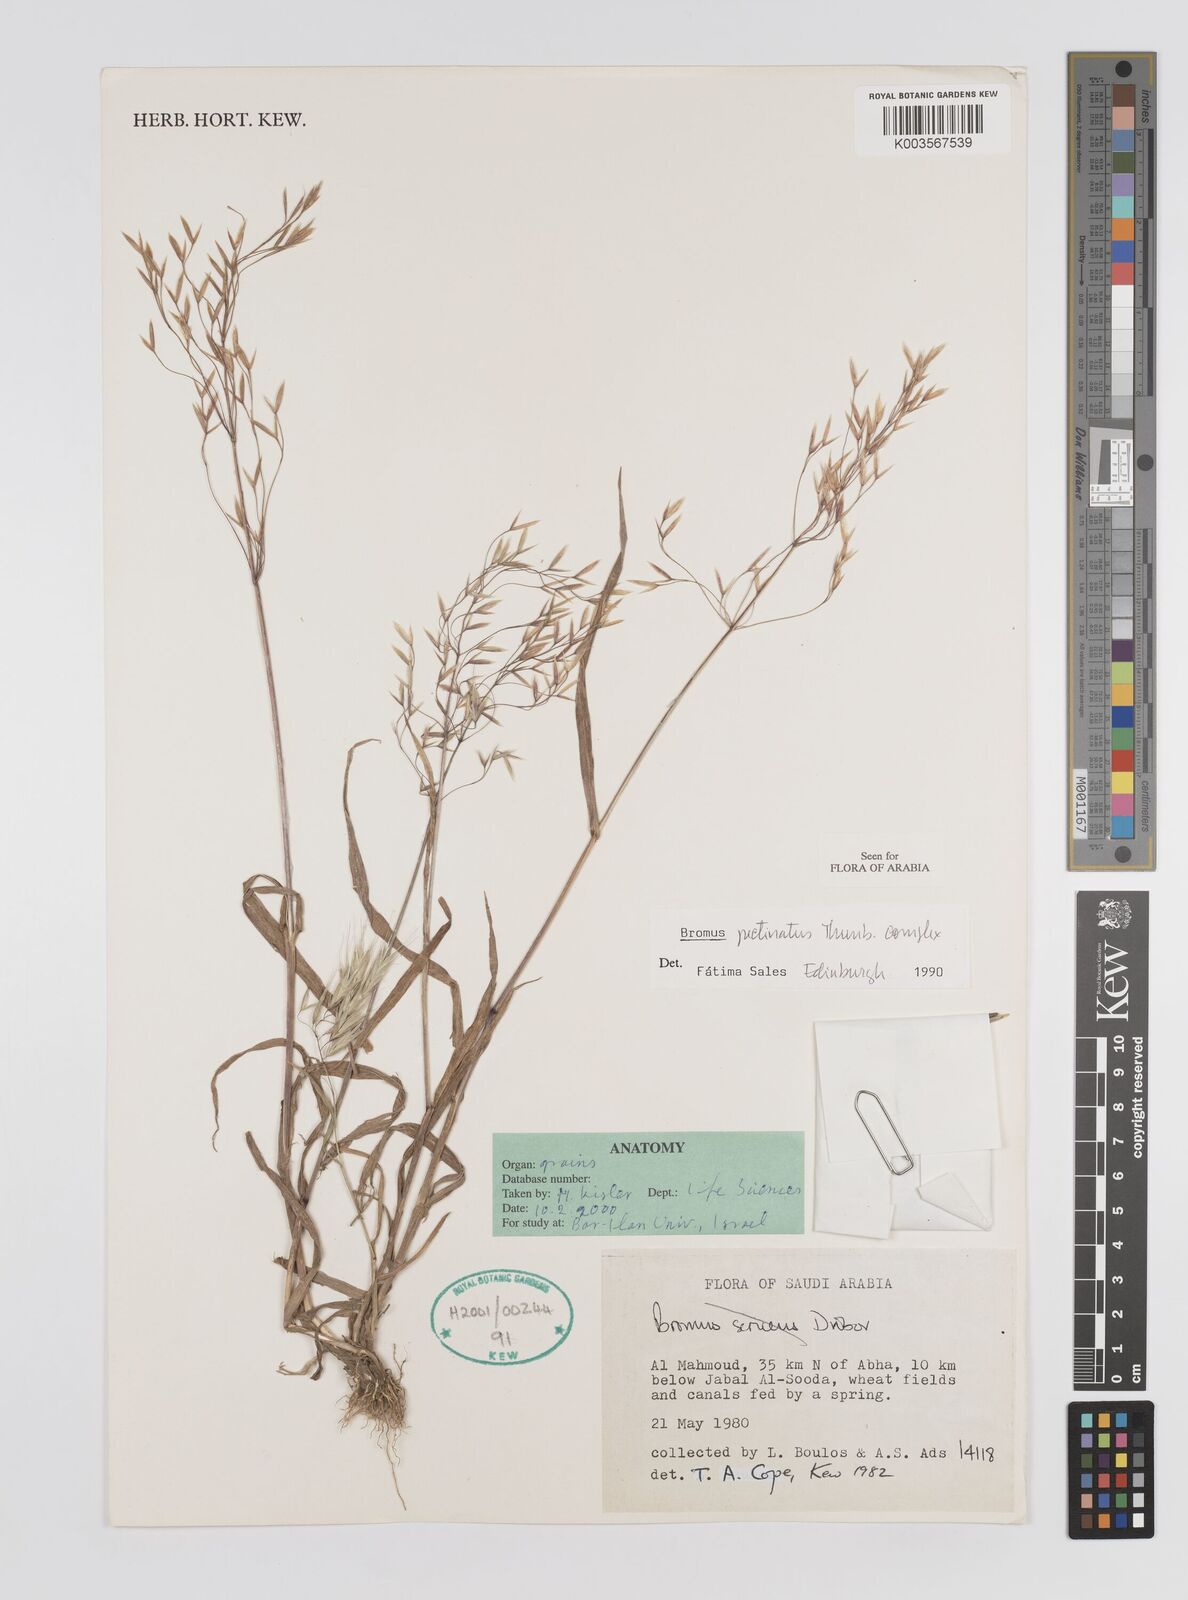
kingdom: Plantae
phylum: Tracheophyta
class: Liliopsida
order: Poales
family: Poaceae
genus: Bromus
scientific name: Bromus pectinatus
